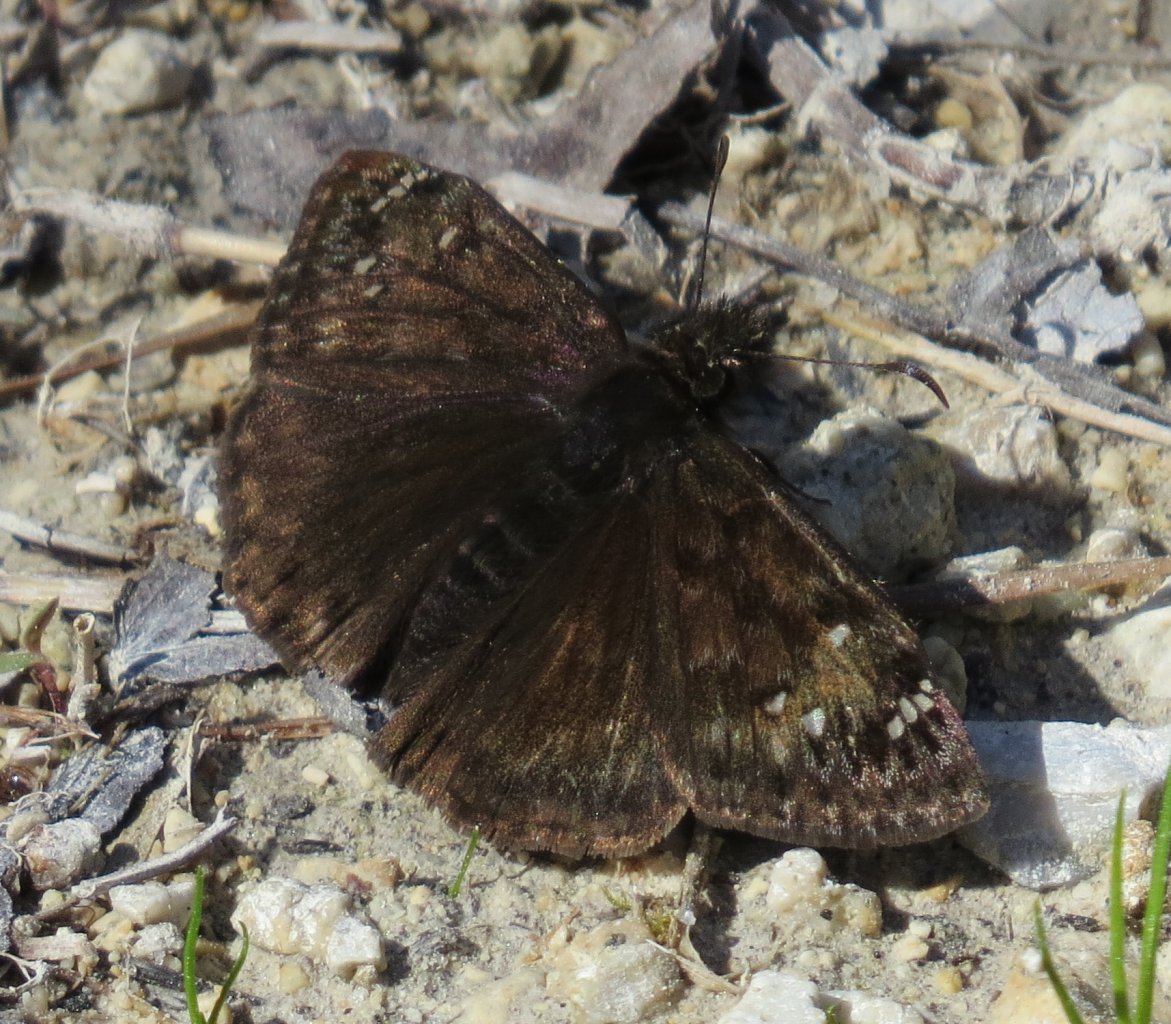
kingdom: Animalia
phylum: Arthropoda
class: Insecta
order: Lepidoptera
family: Hesperiidae
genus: Gesta
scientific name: Gesta
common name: Juvenal's Duskywing
